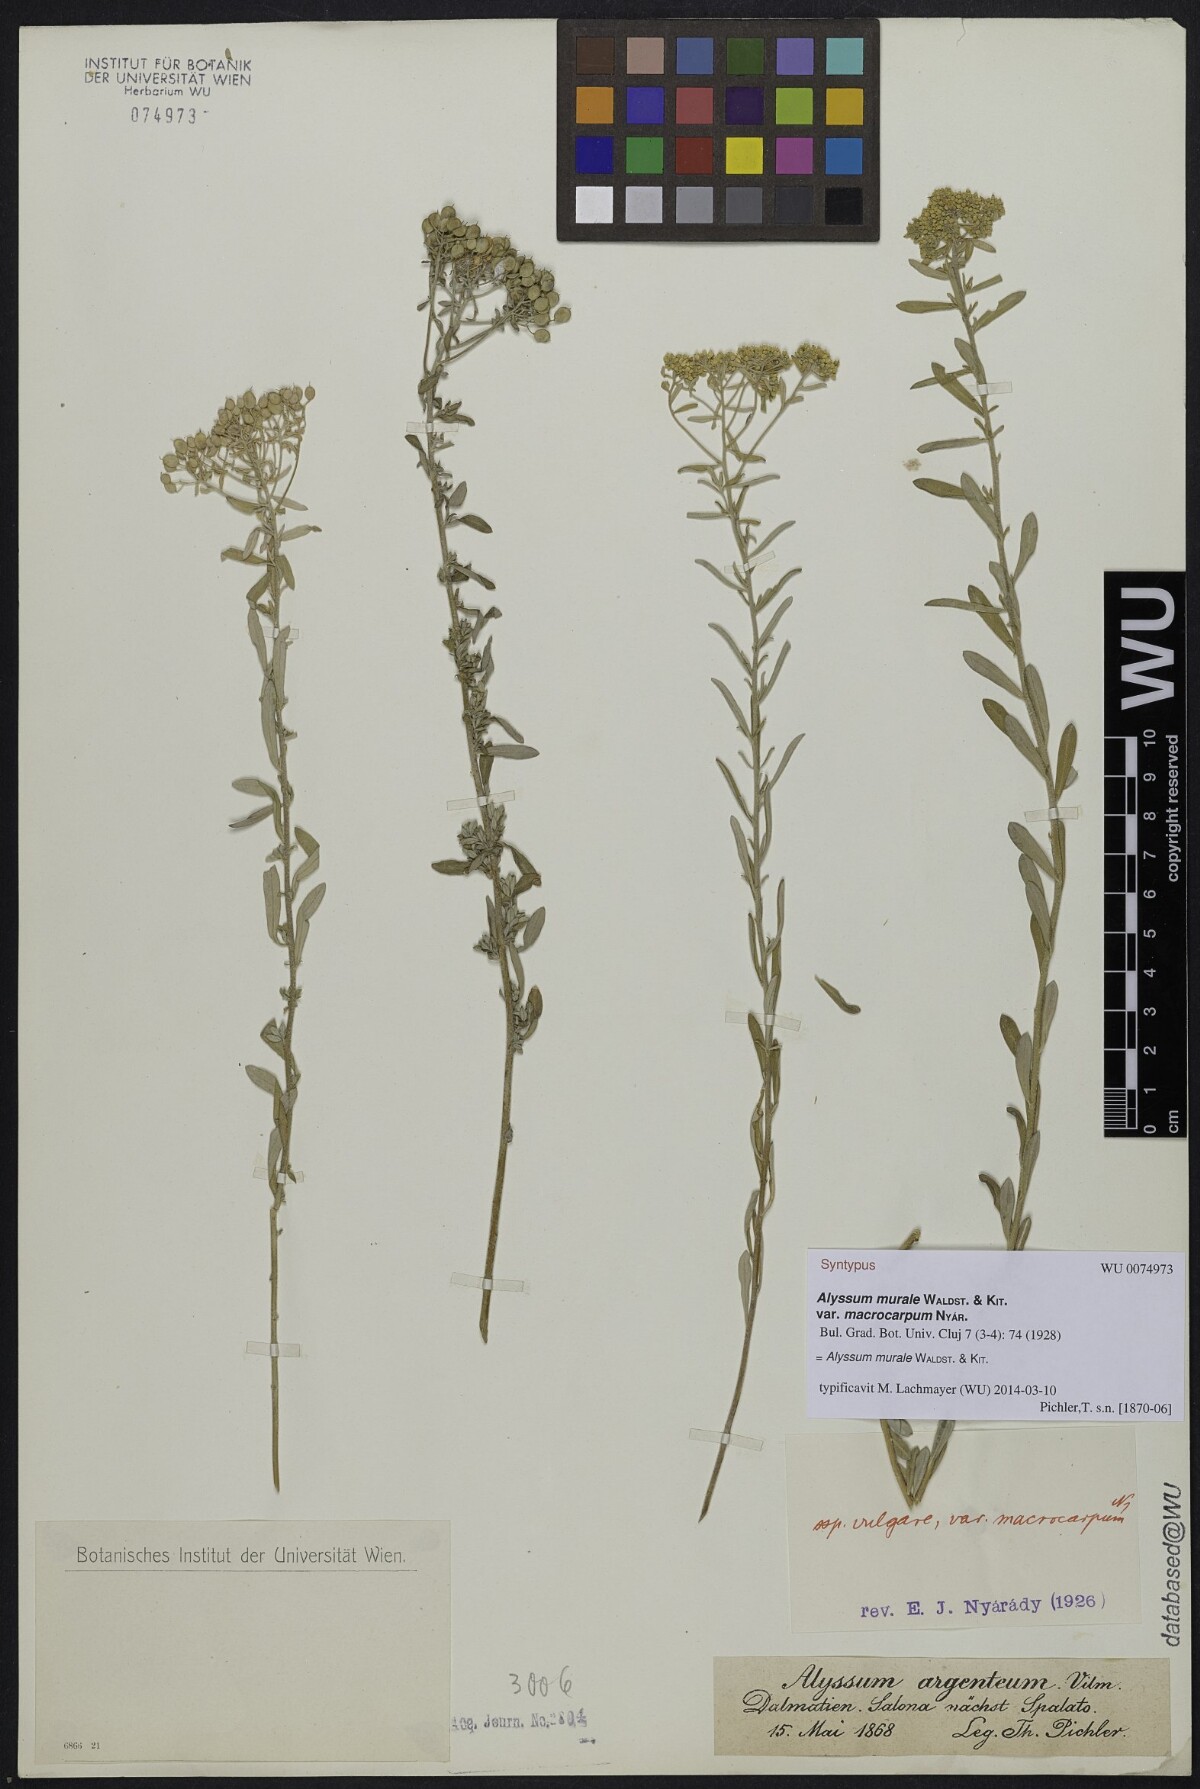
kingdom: Plantae
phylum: Tracheophyta
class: Magnoliopsida
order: Brassicales
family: Brassicaceae
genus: Odontarrhena
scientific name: Odontarrhena muralis
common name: Rock alyssum
